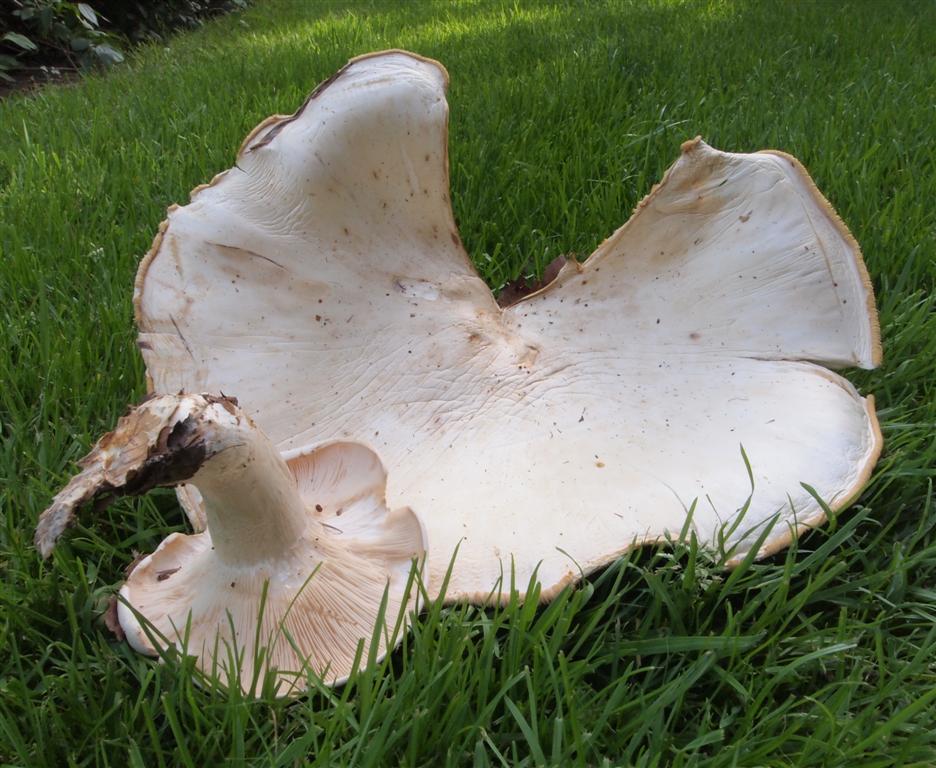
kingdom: Fungi
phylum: Basidiomycota
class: Agaricomycetes
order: Agaricales
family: Tricholomataceae
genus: Aspropaxillus
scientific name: Aspropaxillus giganteus
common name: kæmpe-tragtridderhat
